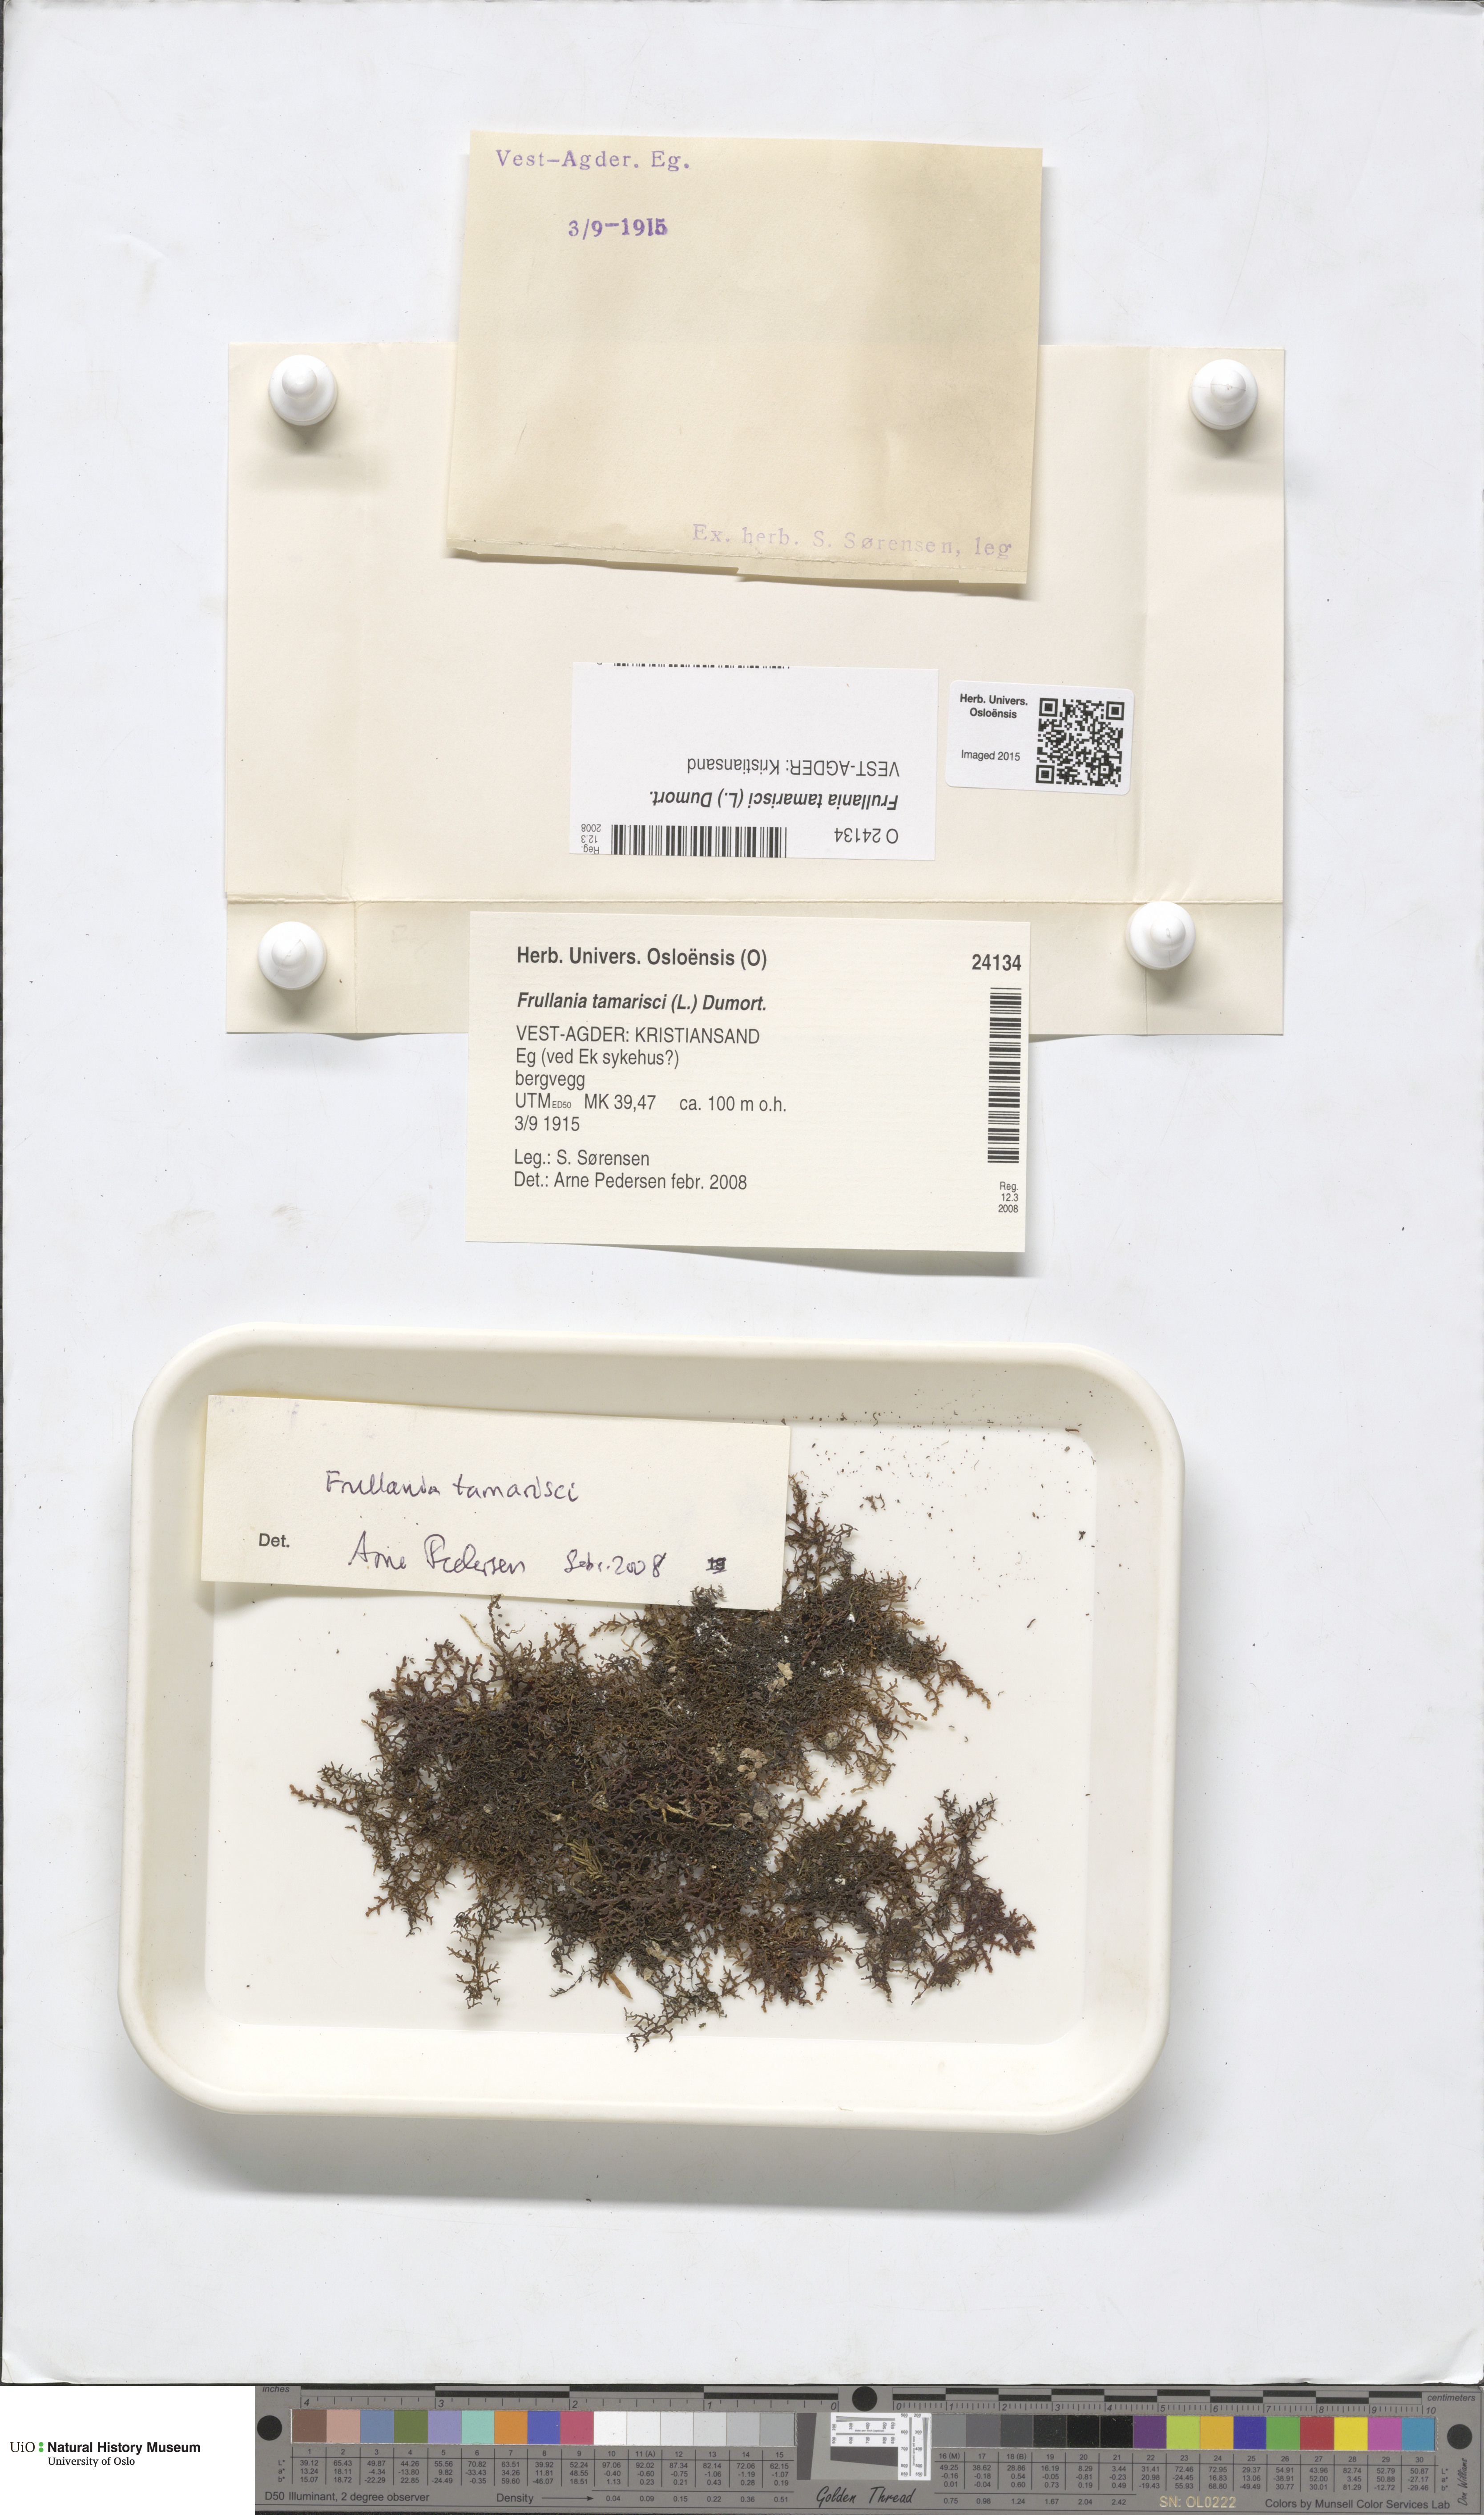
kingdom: Plantae
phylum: Marchantiophyta
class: Jungermanniopsida
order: Porellales
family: Frullaniaceae
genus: Frullania
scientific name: Frullania tamarisci
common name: Tamarisk scalewort
